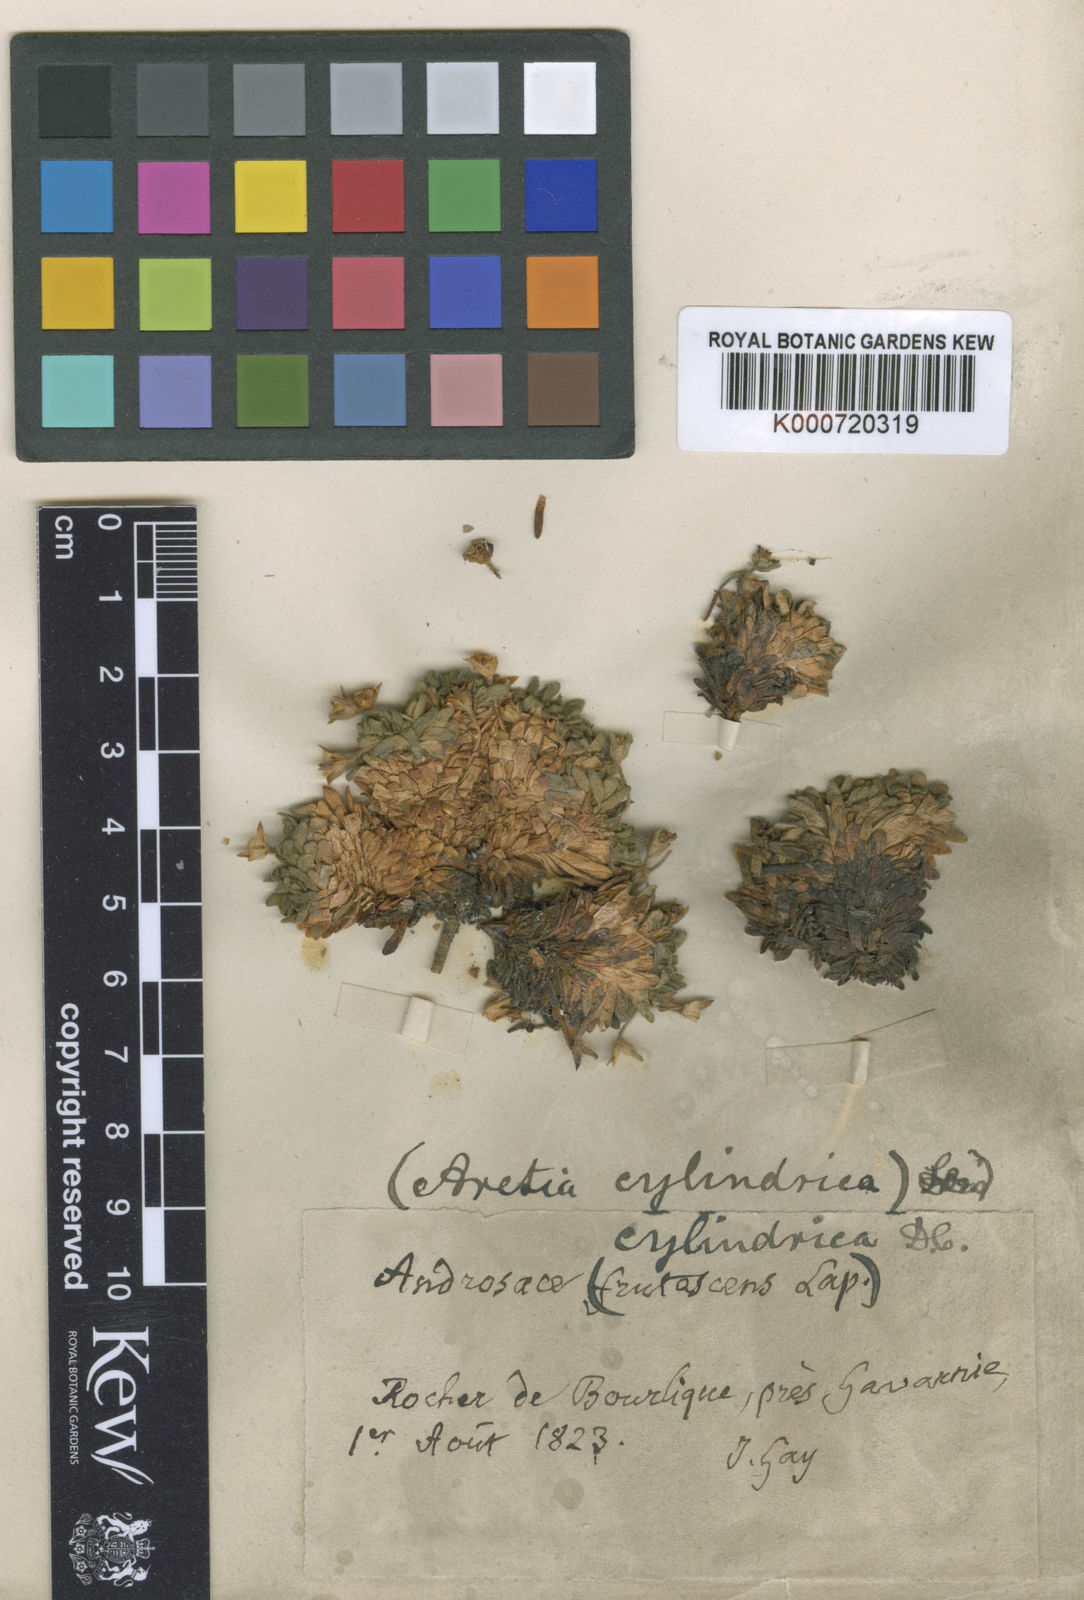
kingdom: Plantae
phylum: Tracheophyta
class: Magnoliopsida
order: Ericales
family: Primulaceae
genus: Androsace
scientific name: Androsace cylindrica
